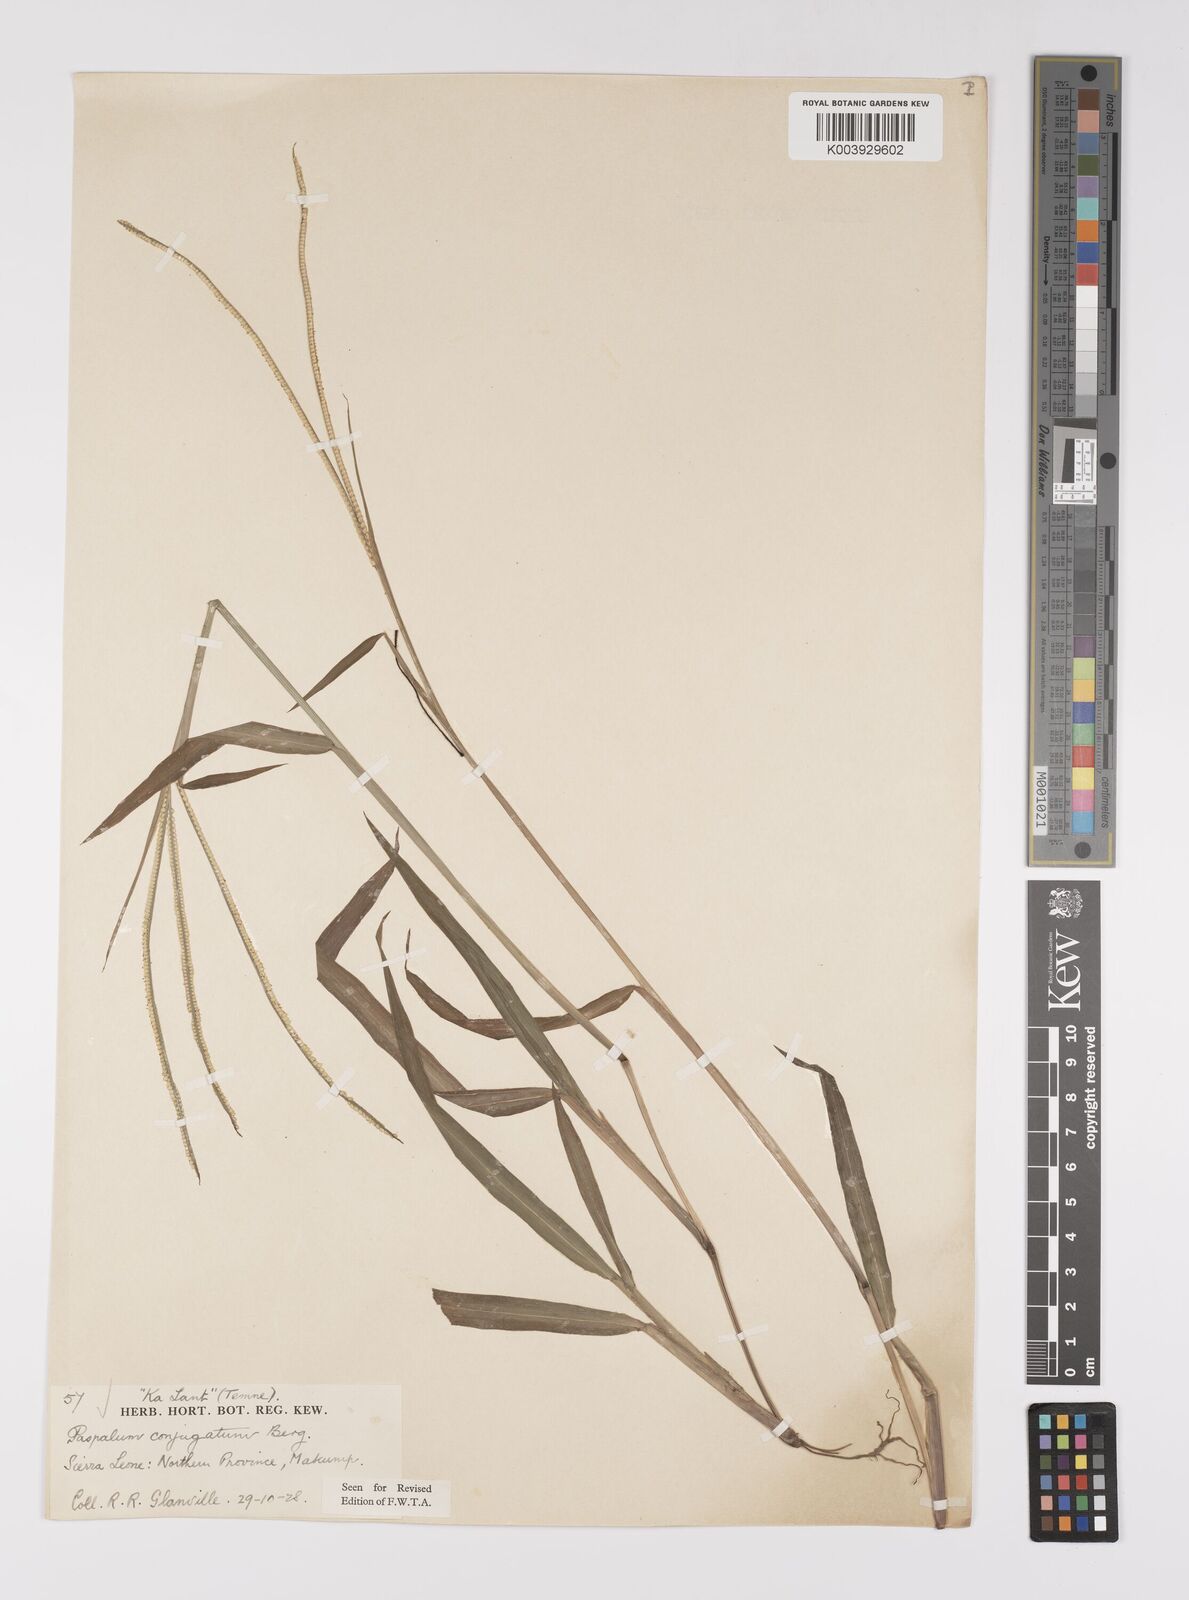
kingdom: Plantae
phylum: Tracheophyta
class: Liliopsida
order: Poales
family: Poaceae
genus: Paspalum
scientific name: Paspalum conjugatum
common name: Hilograss
